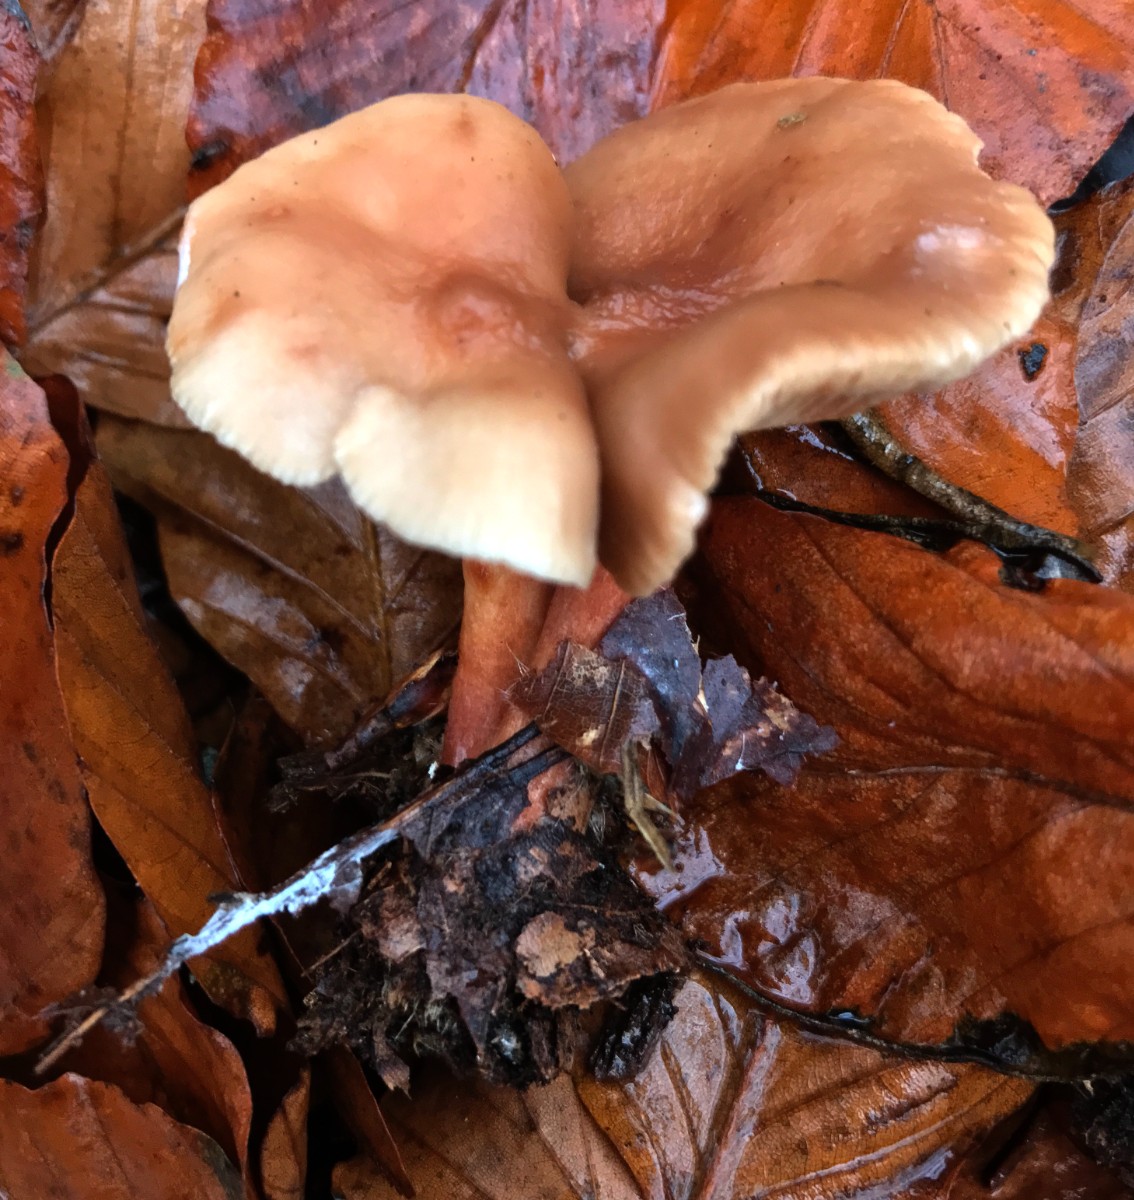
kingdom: Fungi
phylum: Basidiomycota
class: Agaricomycetes
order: Russulales
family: Russulaceae
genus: Lactarius
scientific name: Lactarius subdulcis
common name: sødlig mælkehat
